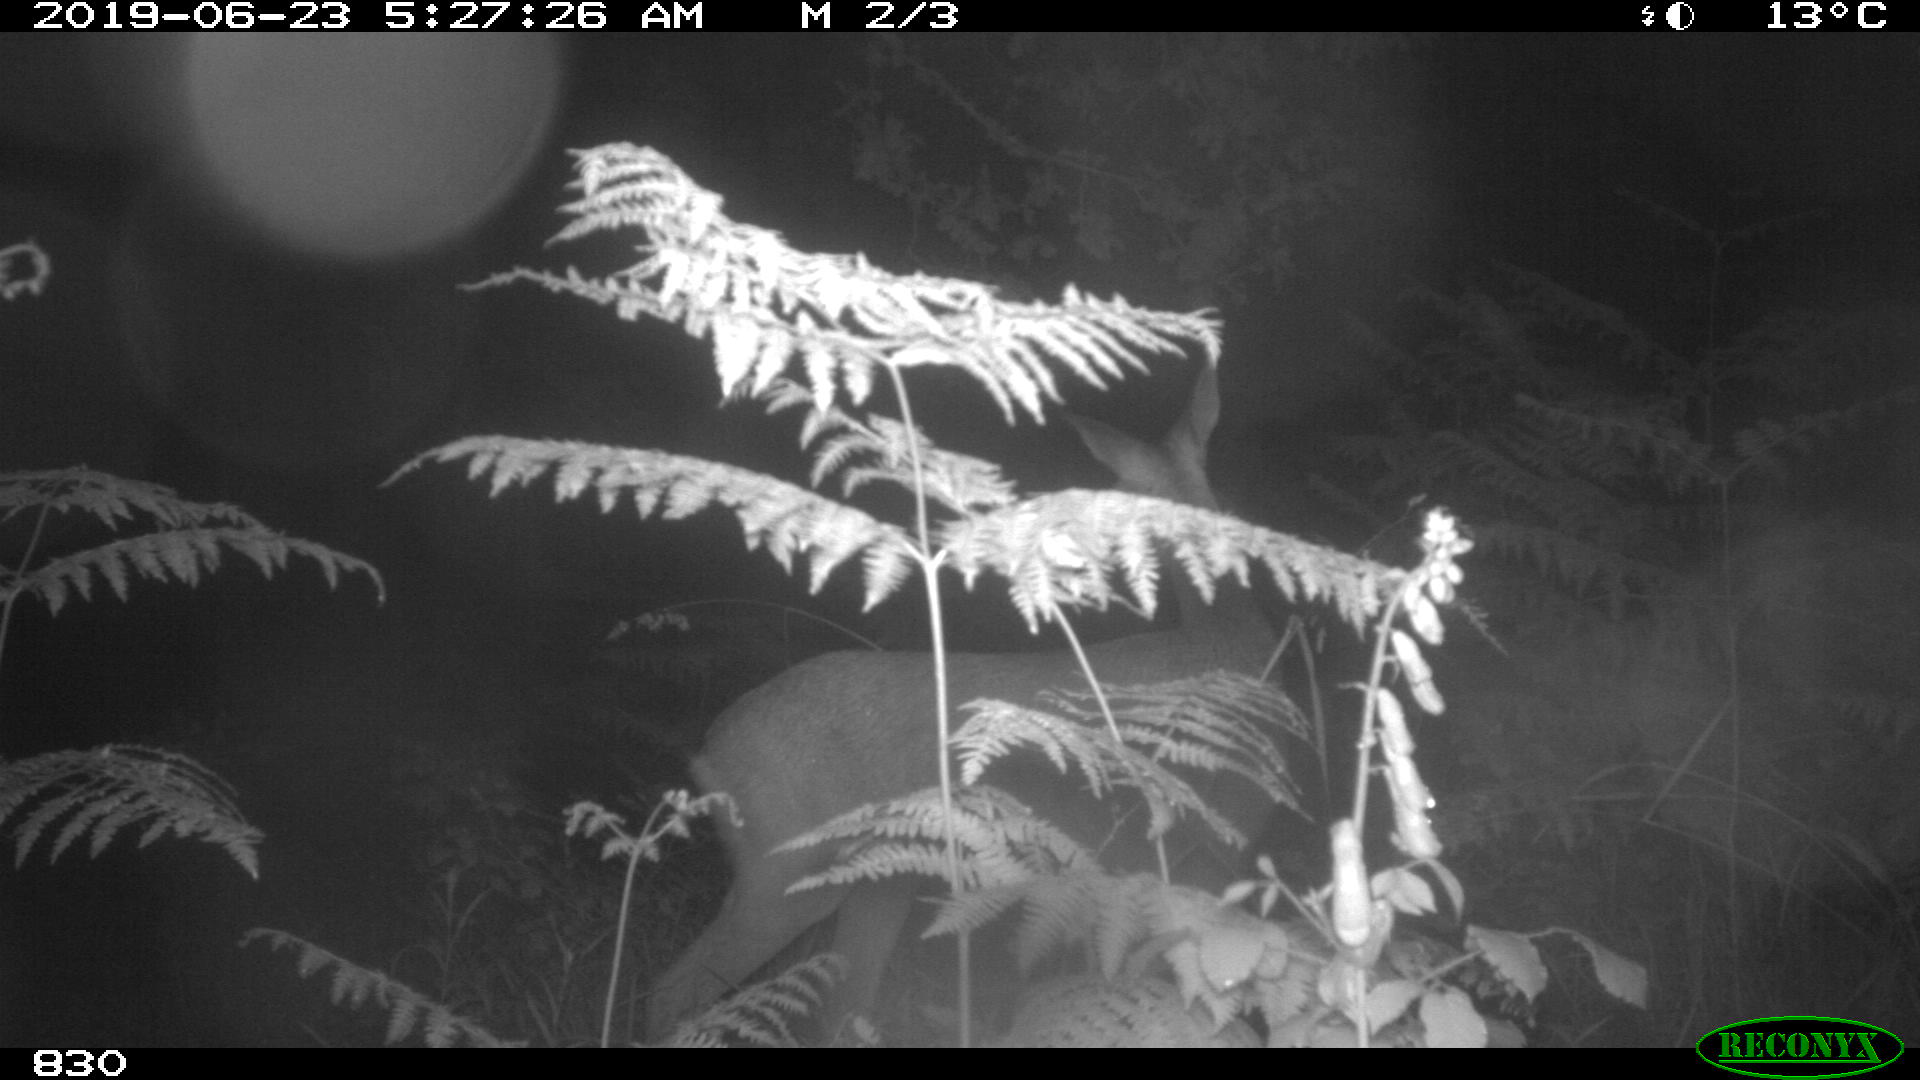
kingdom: Animalia
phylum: Chordata
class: Mammalia
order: Artiodactyla
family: Cervidae
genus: Capreolus
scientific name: Capreolus capreolus
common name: Western roe deer
